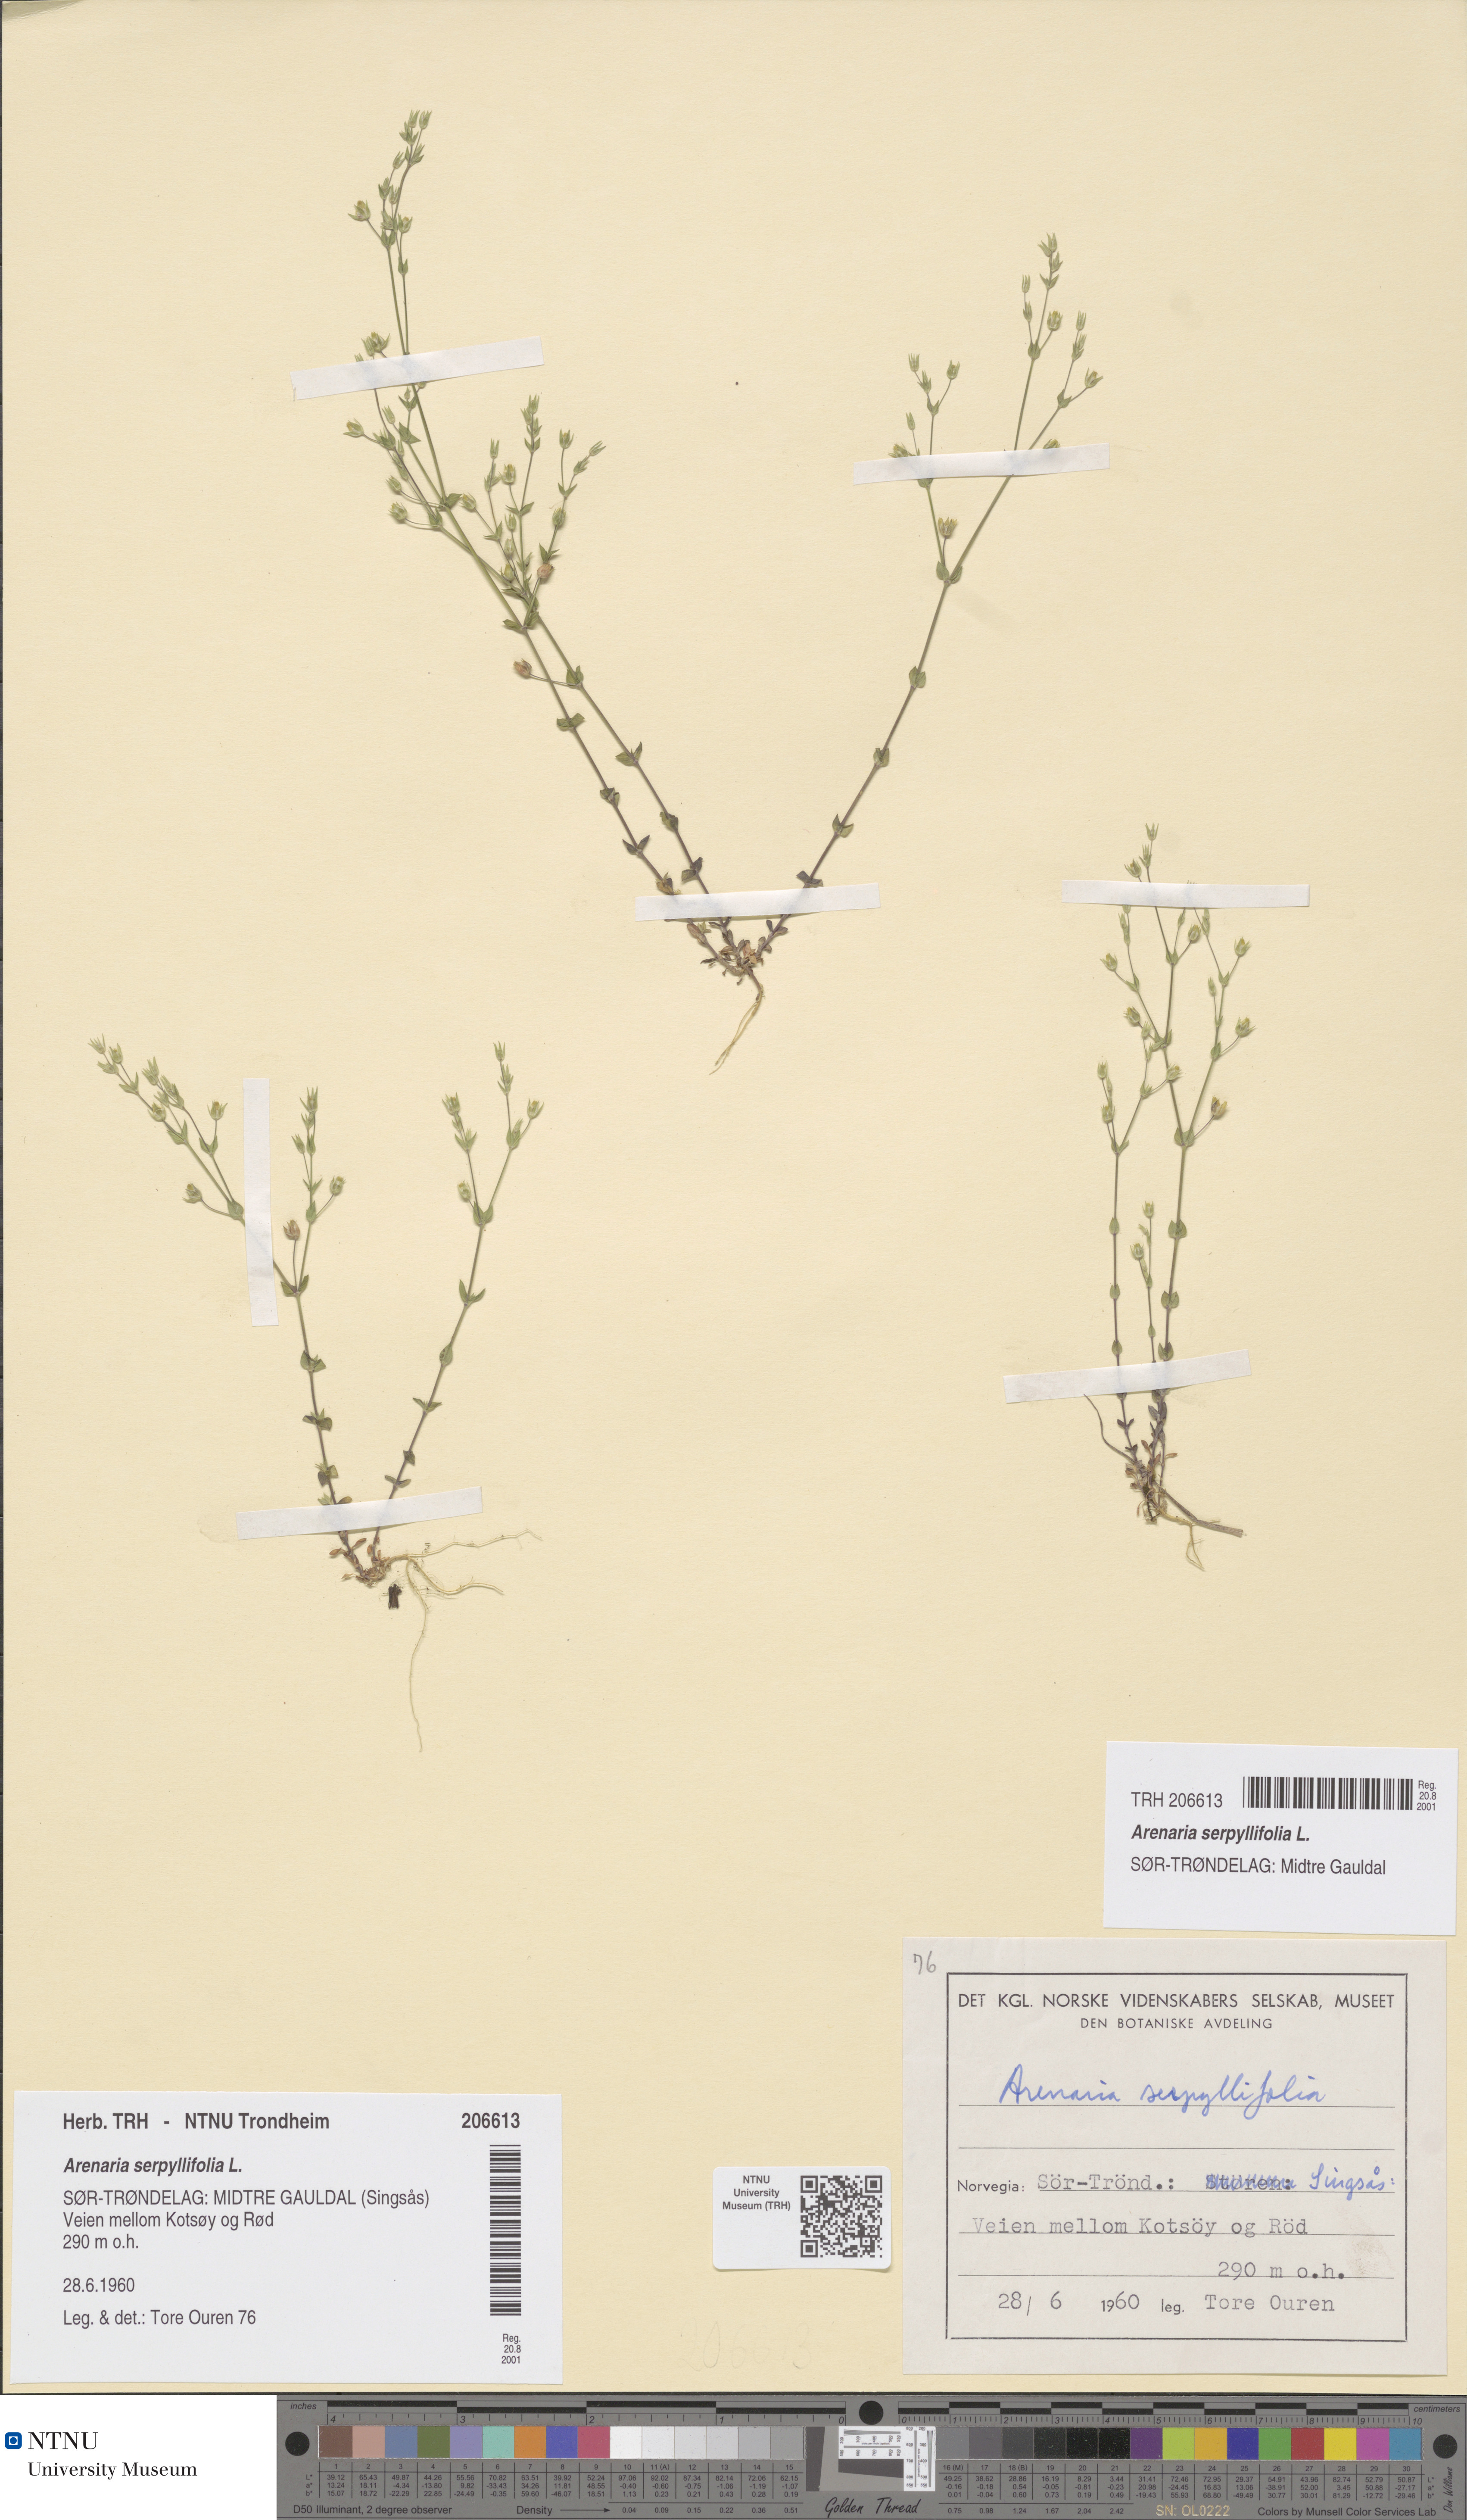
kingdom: Plantae
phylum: Tracheophyta
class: Magnoliopsida
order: Caryophyllales
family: Caryophyllaceae
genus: Arenaria
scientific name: Arenaria serpyllifolia
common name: Thyme-leaved sandwort
